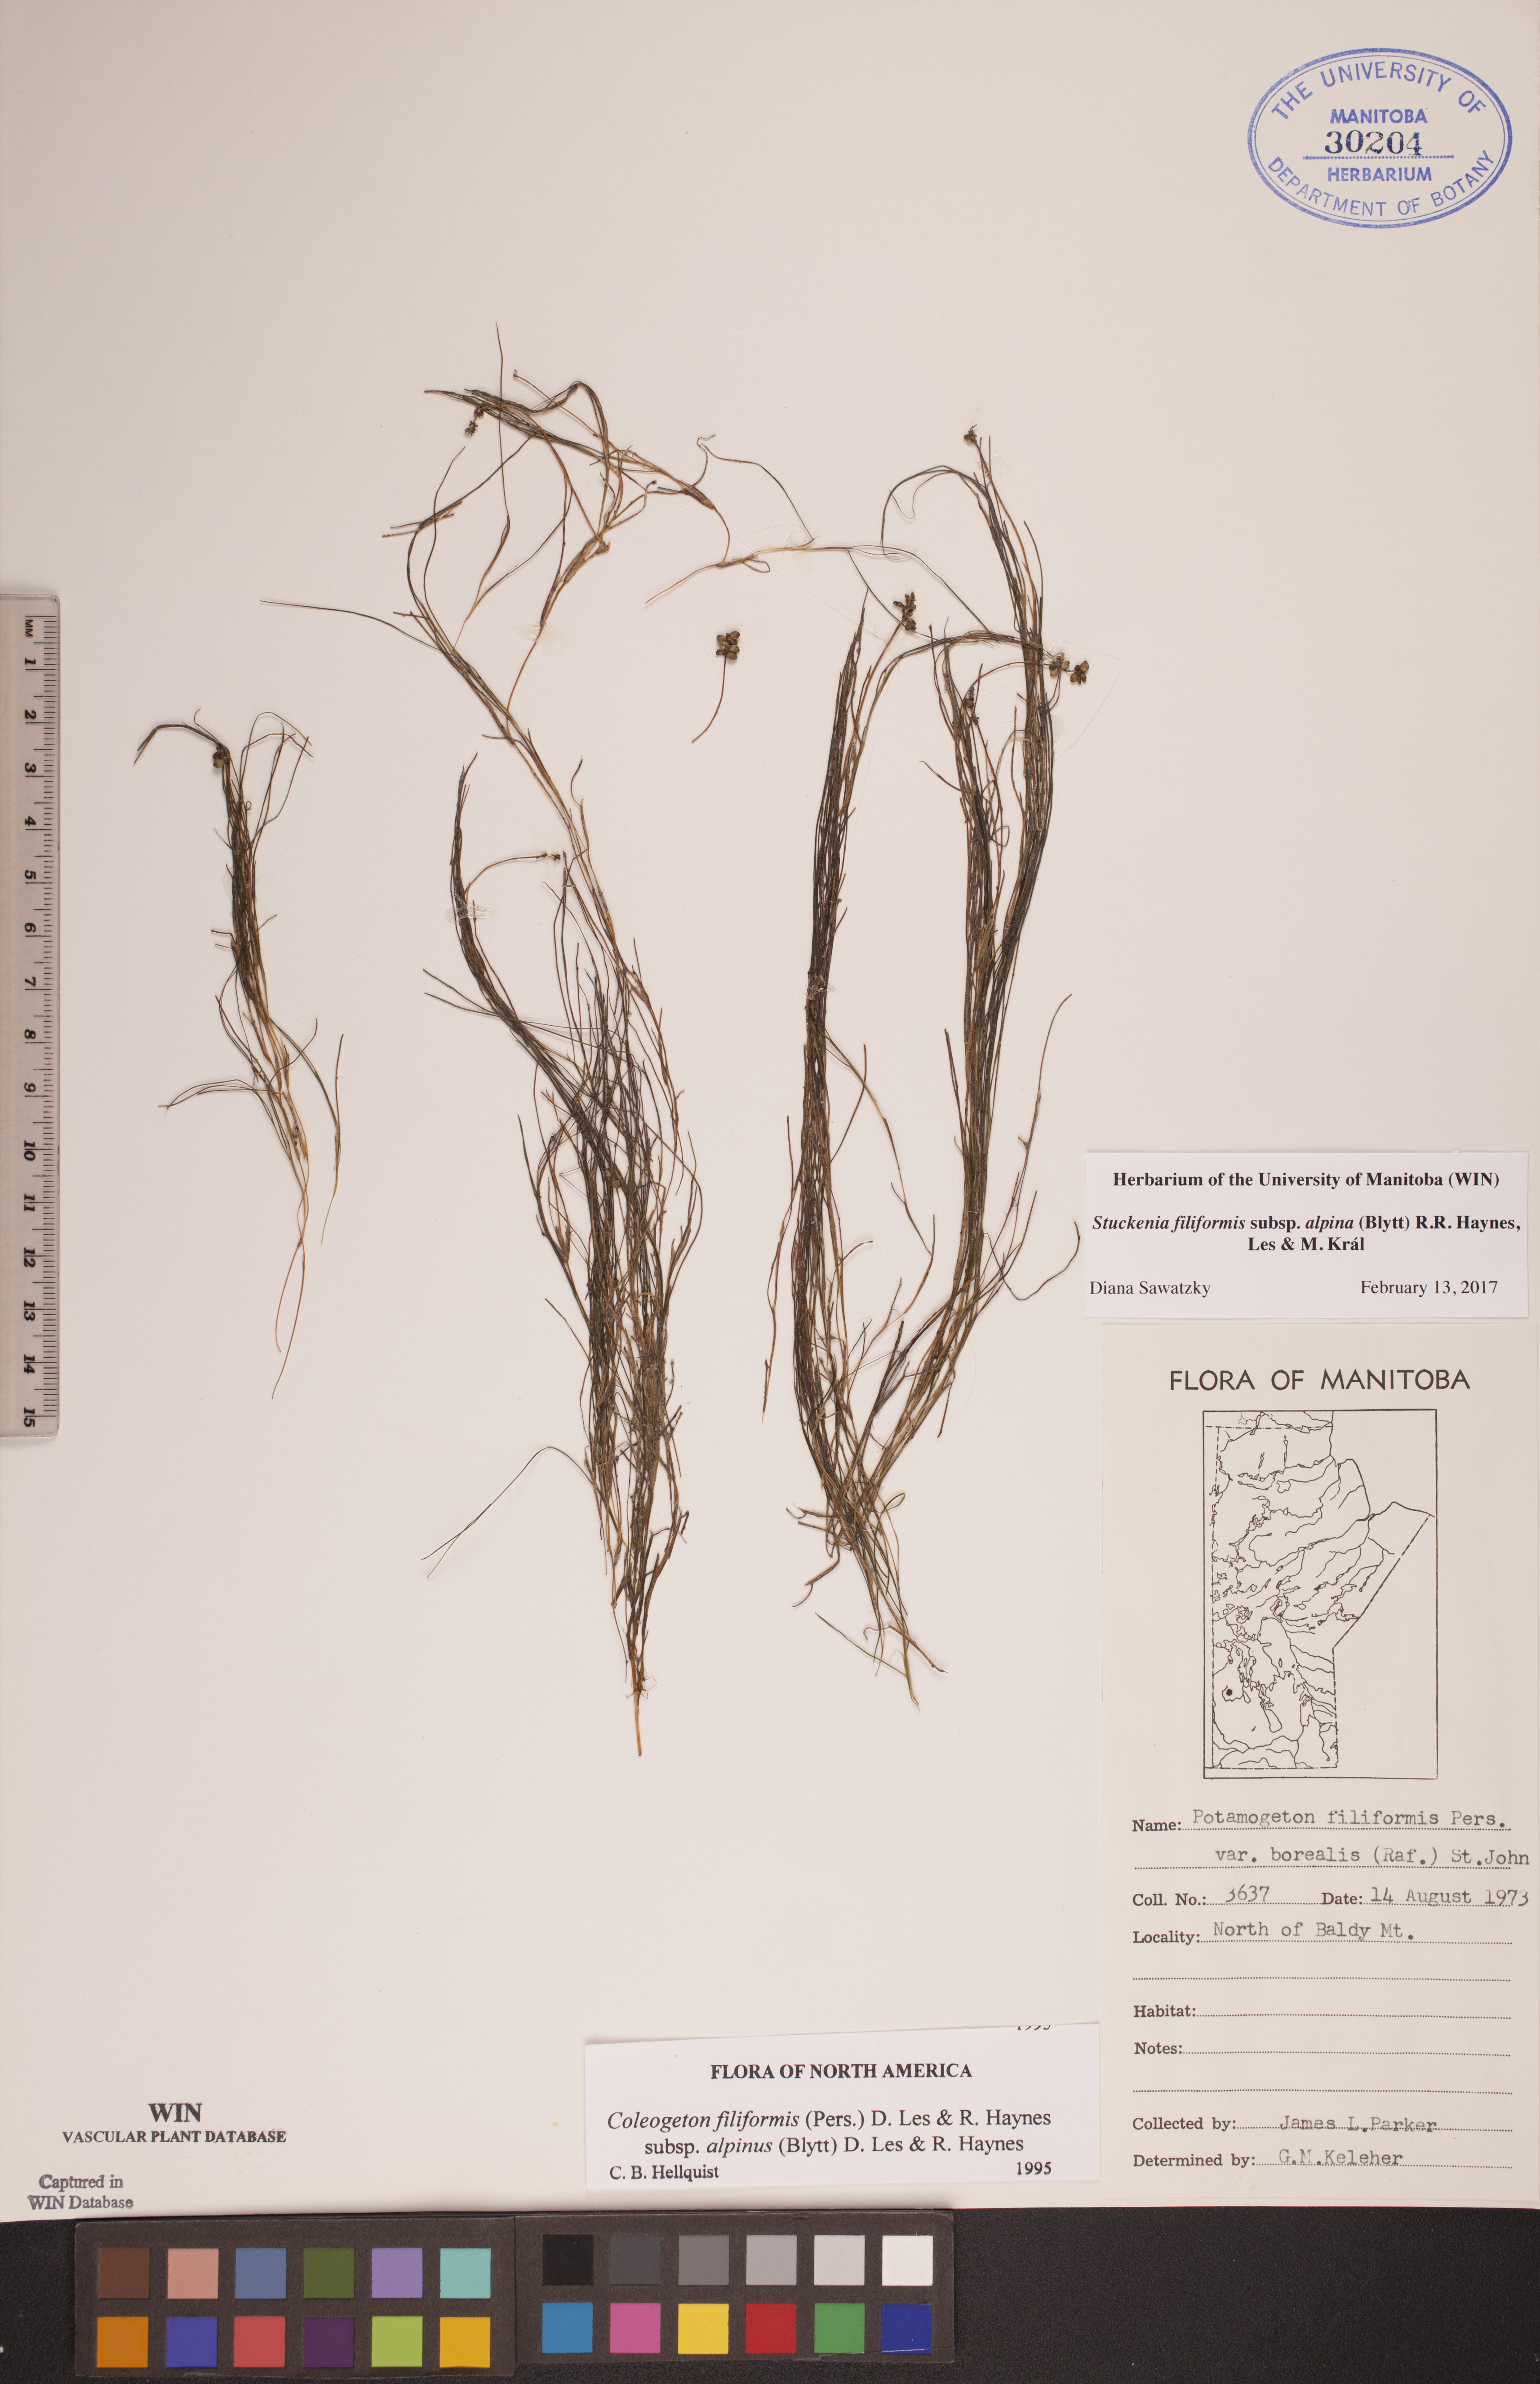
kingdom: Plantae
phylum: Tracheophyta
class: Liliopsida
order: Alismatales
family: Potamogetonaceae
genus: Stuckenia
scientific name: Stuckenia filiformis
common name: Alpine thread-leaved pondweed
